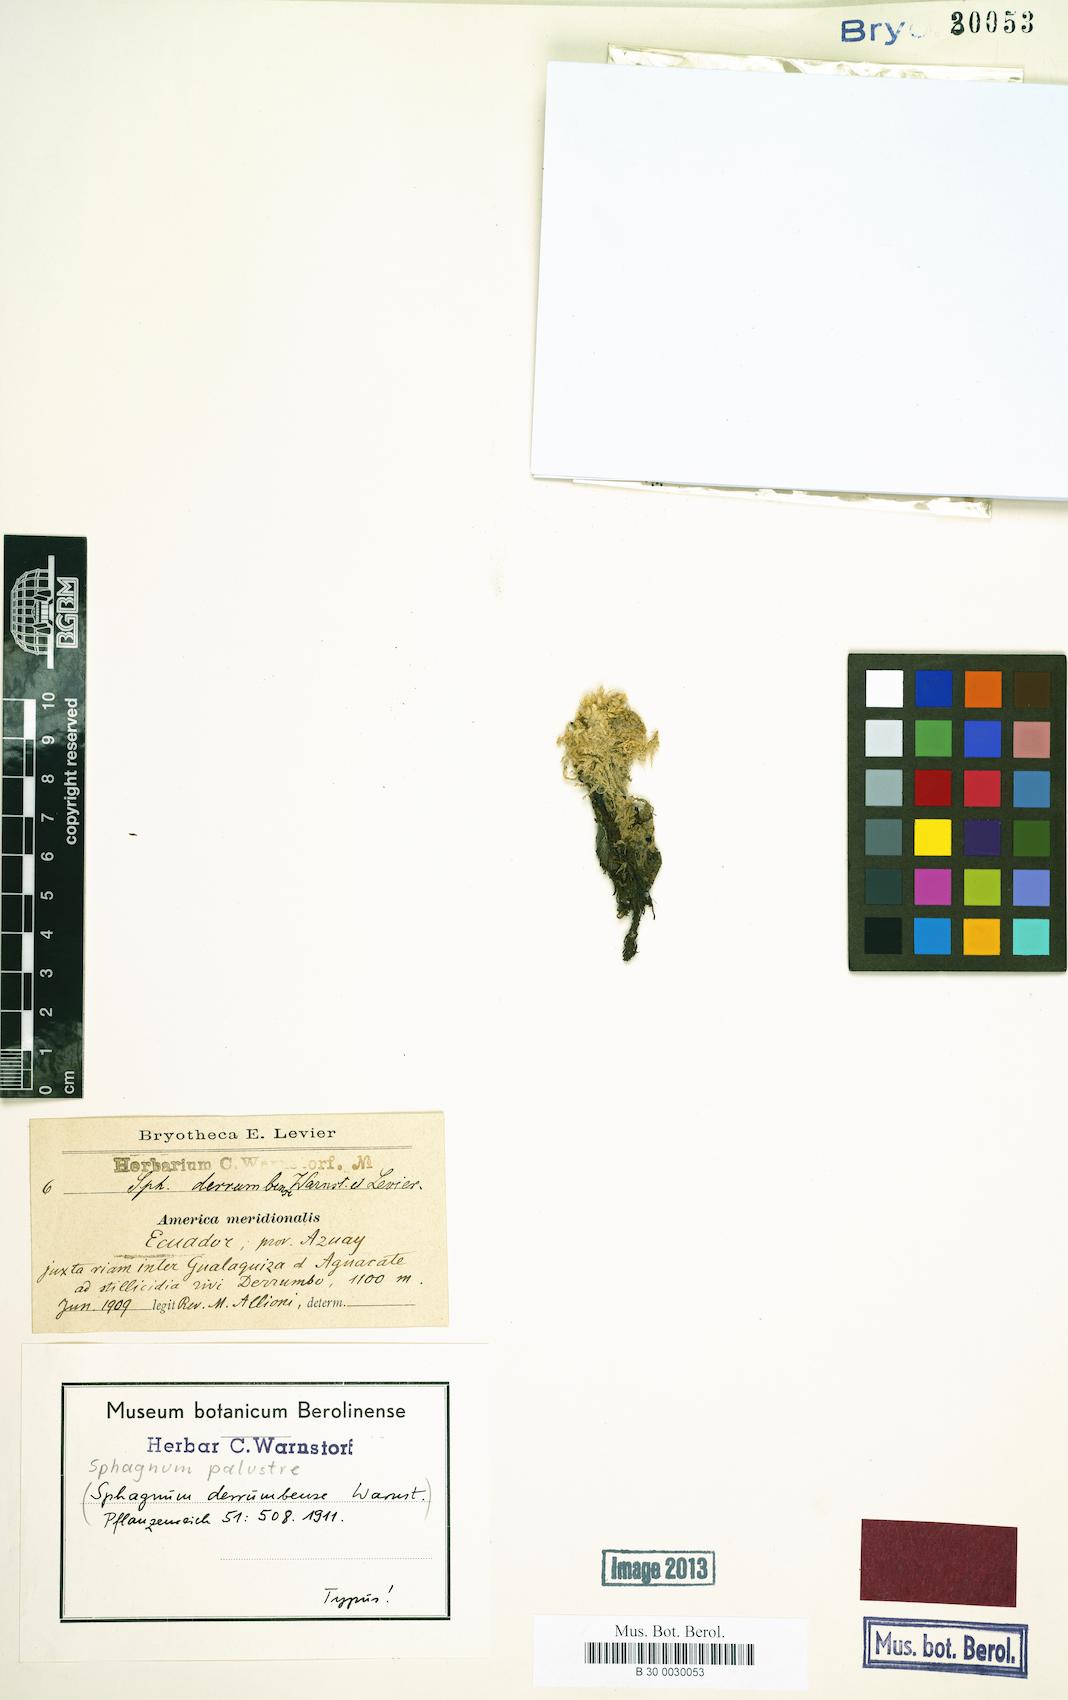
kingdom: Plantae
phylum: Bryophyta
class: Sphagnopsida
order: Sphagnales
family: Sphagnaceae
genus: Sphagnum
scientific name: Sphagnum palustre
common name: Blunt-leaved bog-moss
